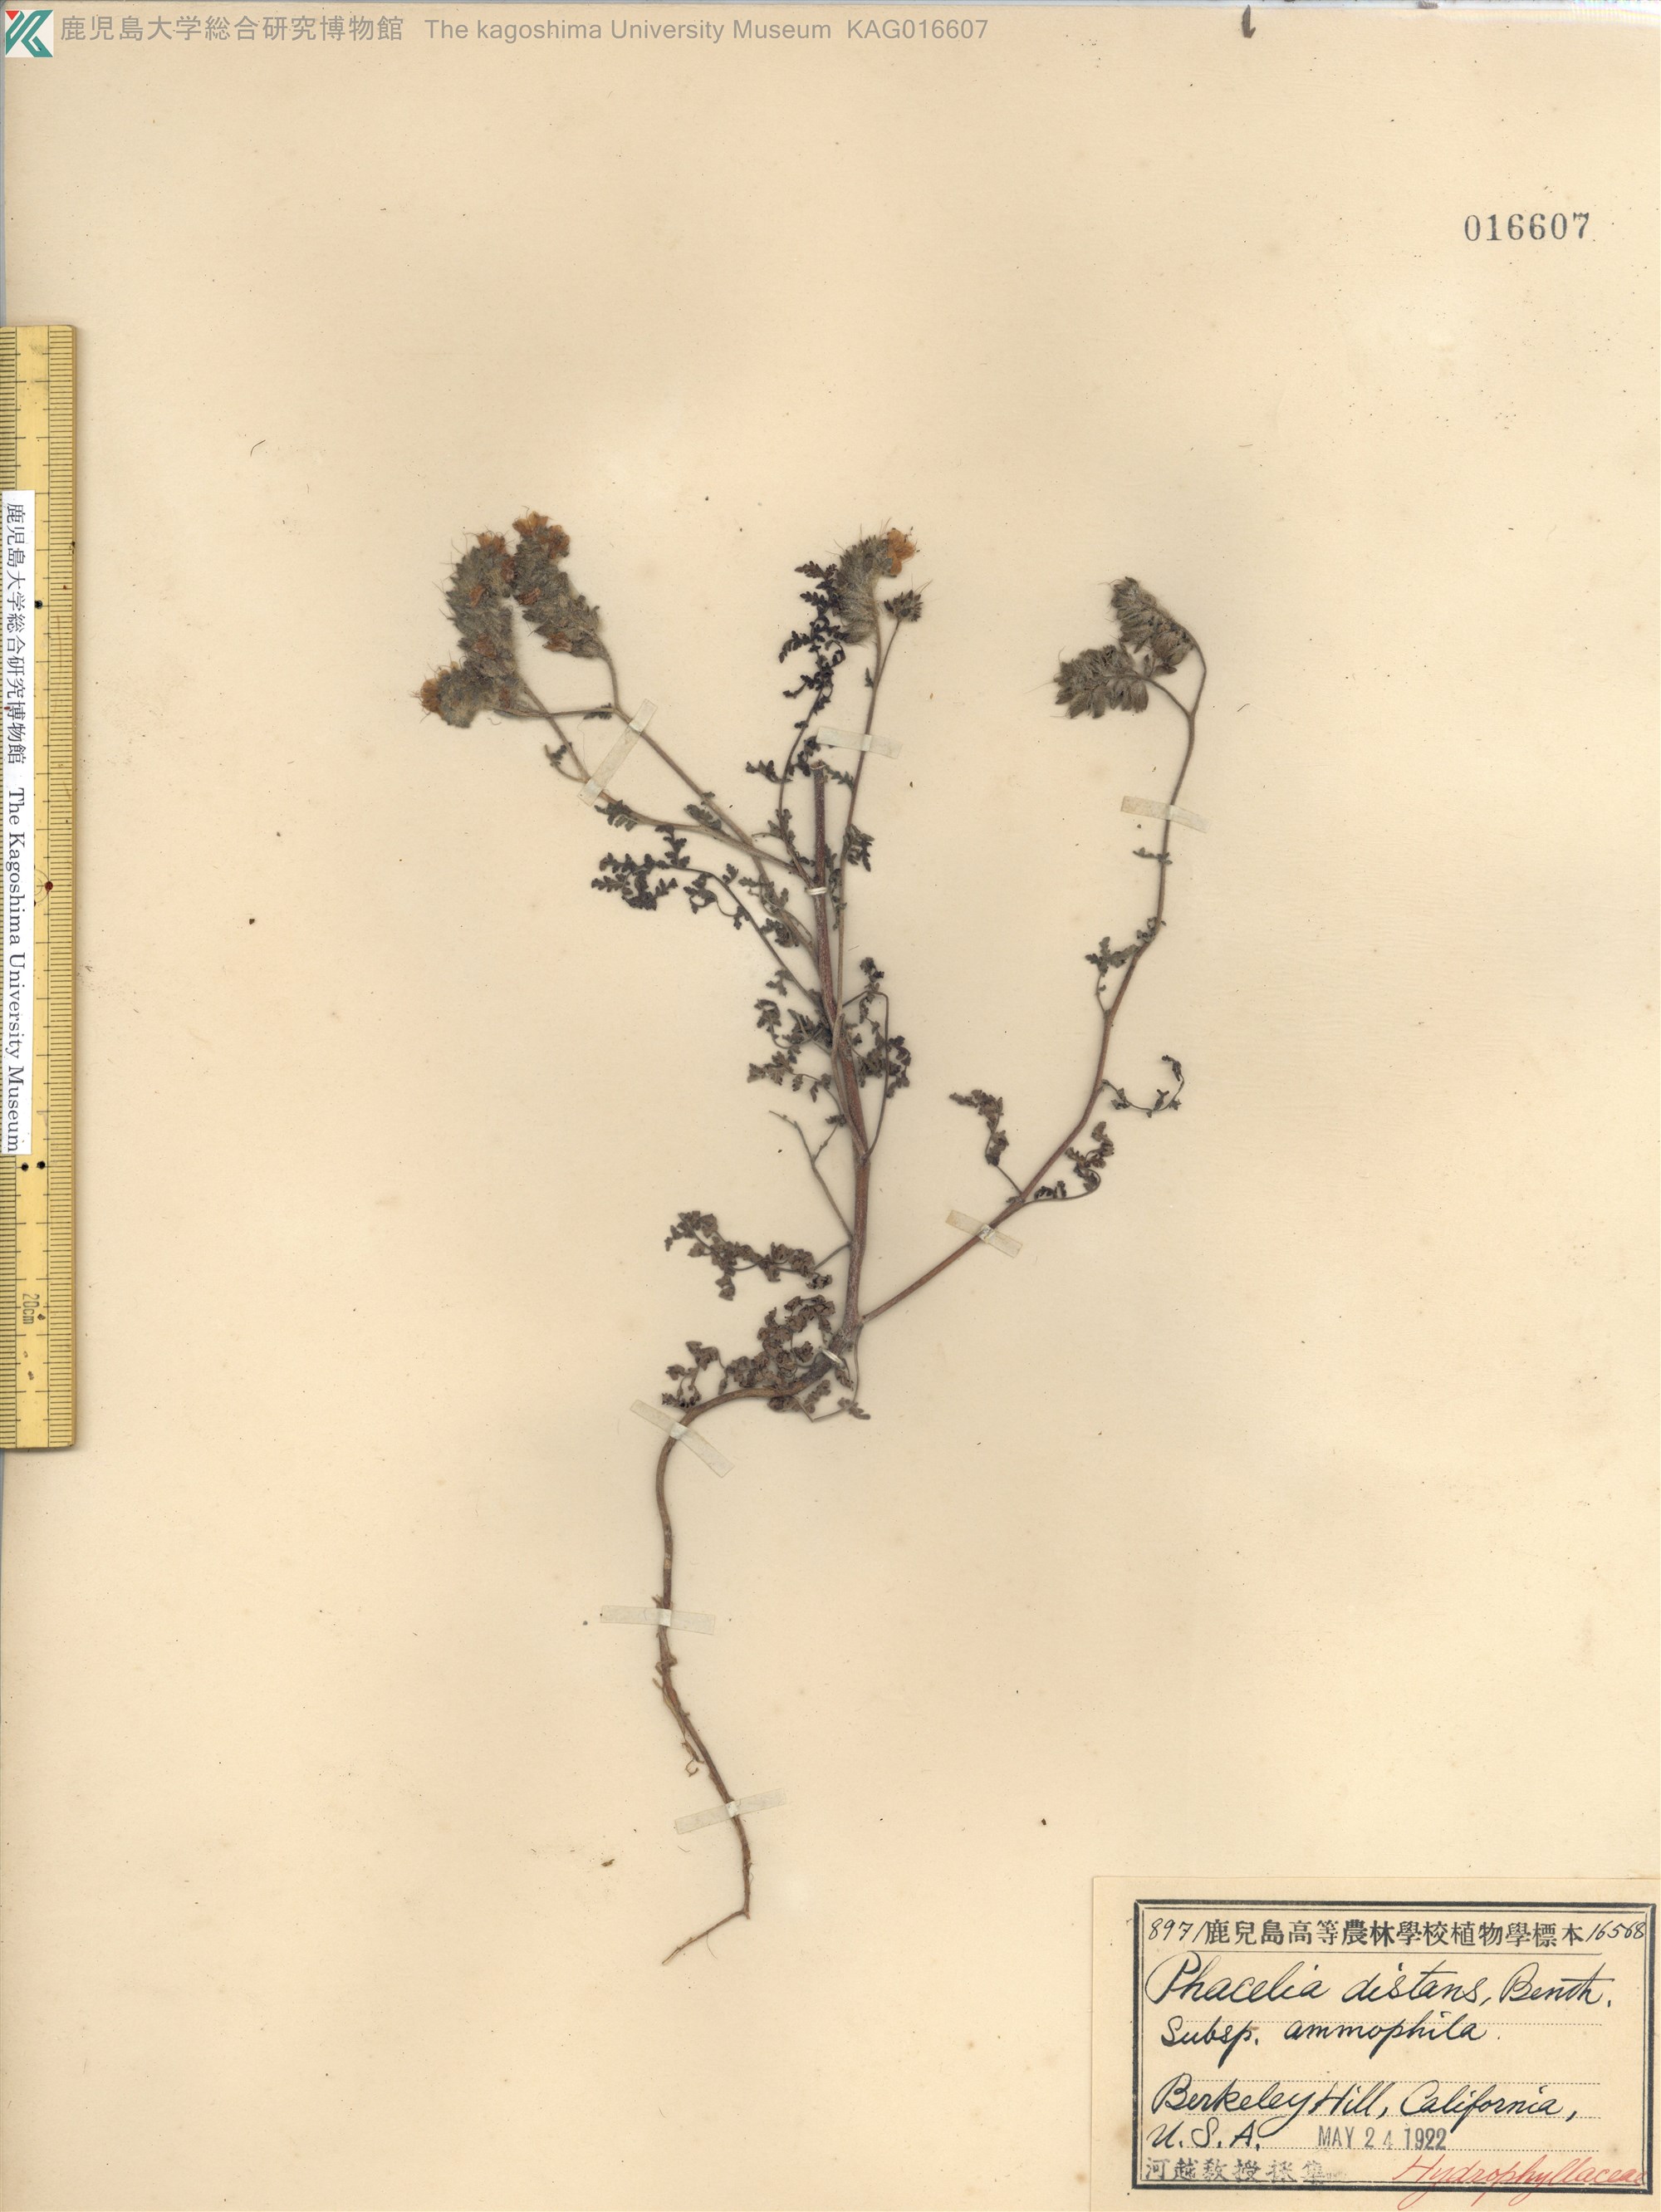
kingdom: Plantae
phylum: Tracheophyta
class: Magnoliopsida
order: Boraginales
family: Hydrophyllaceae
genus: Phacelia
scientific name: Phacelia distans
